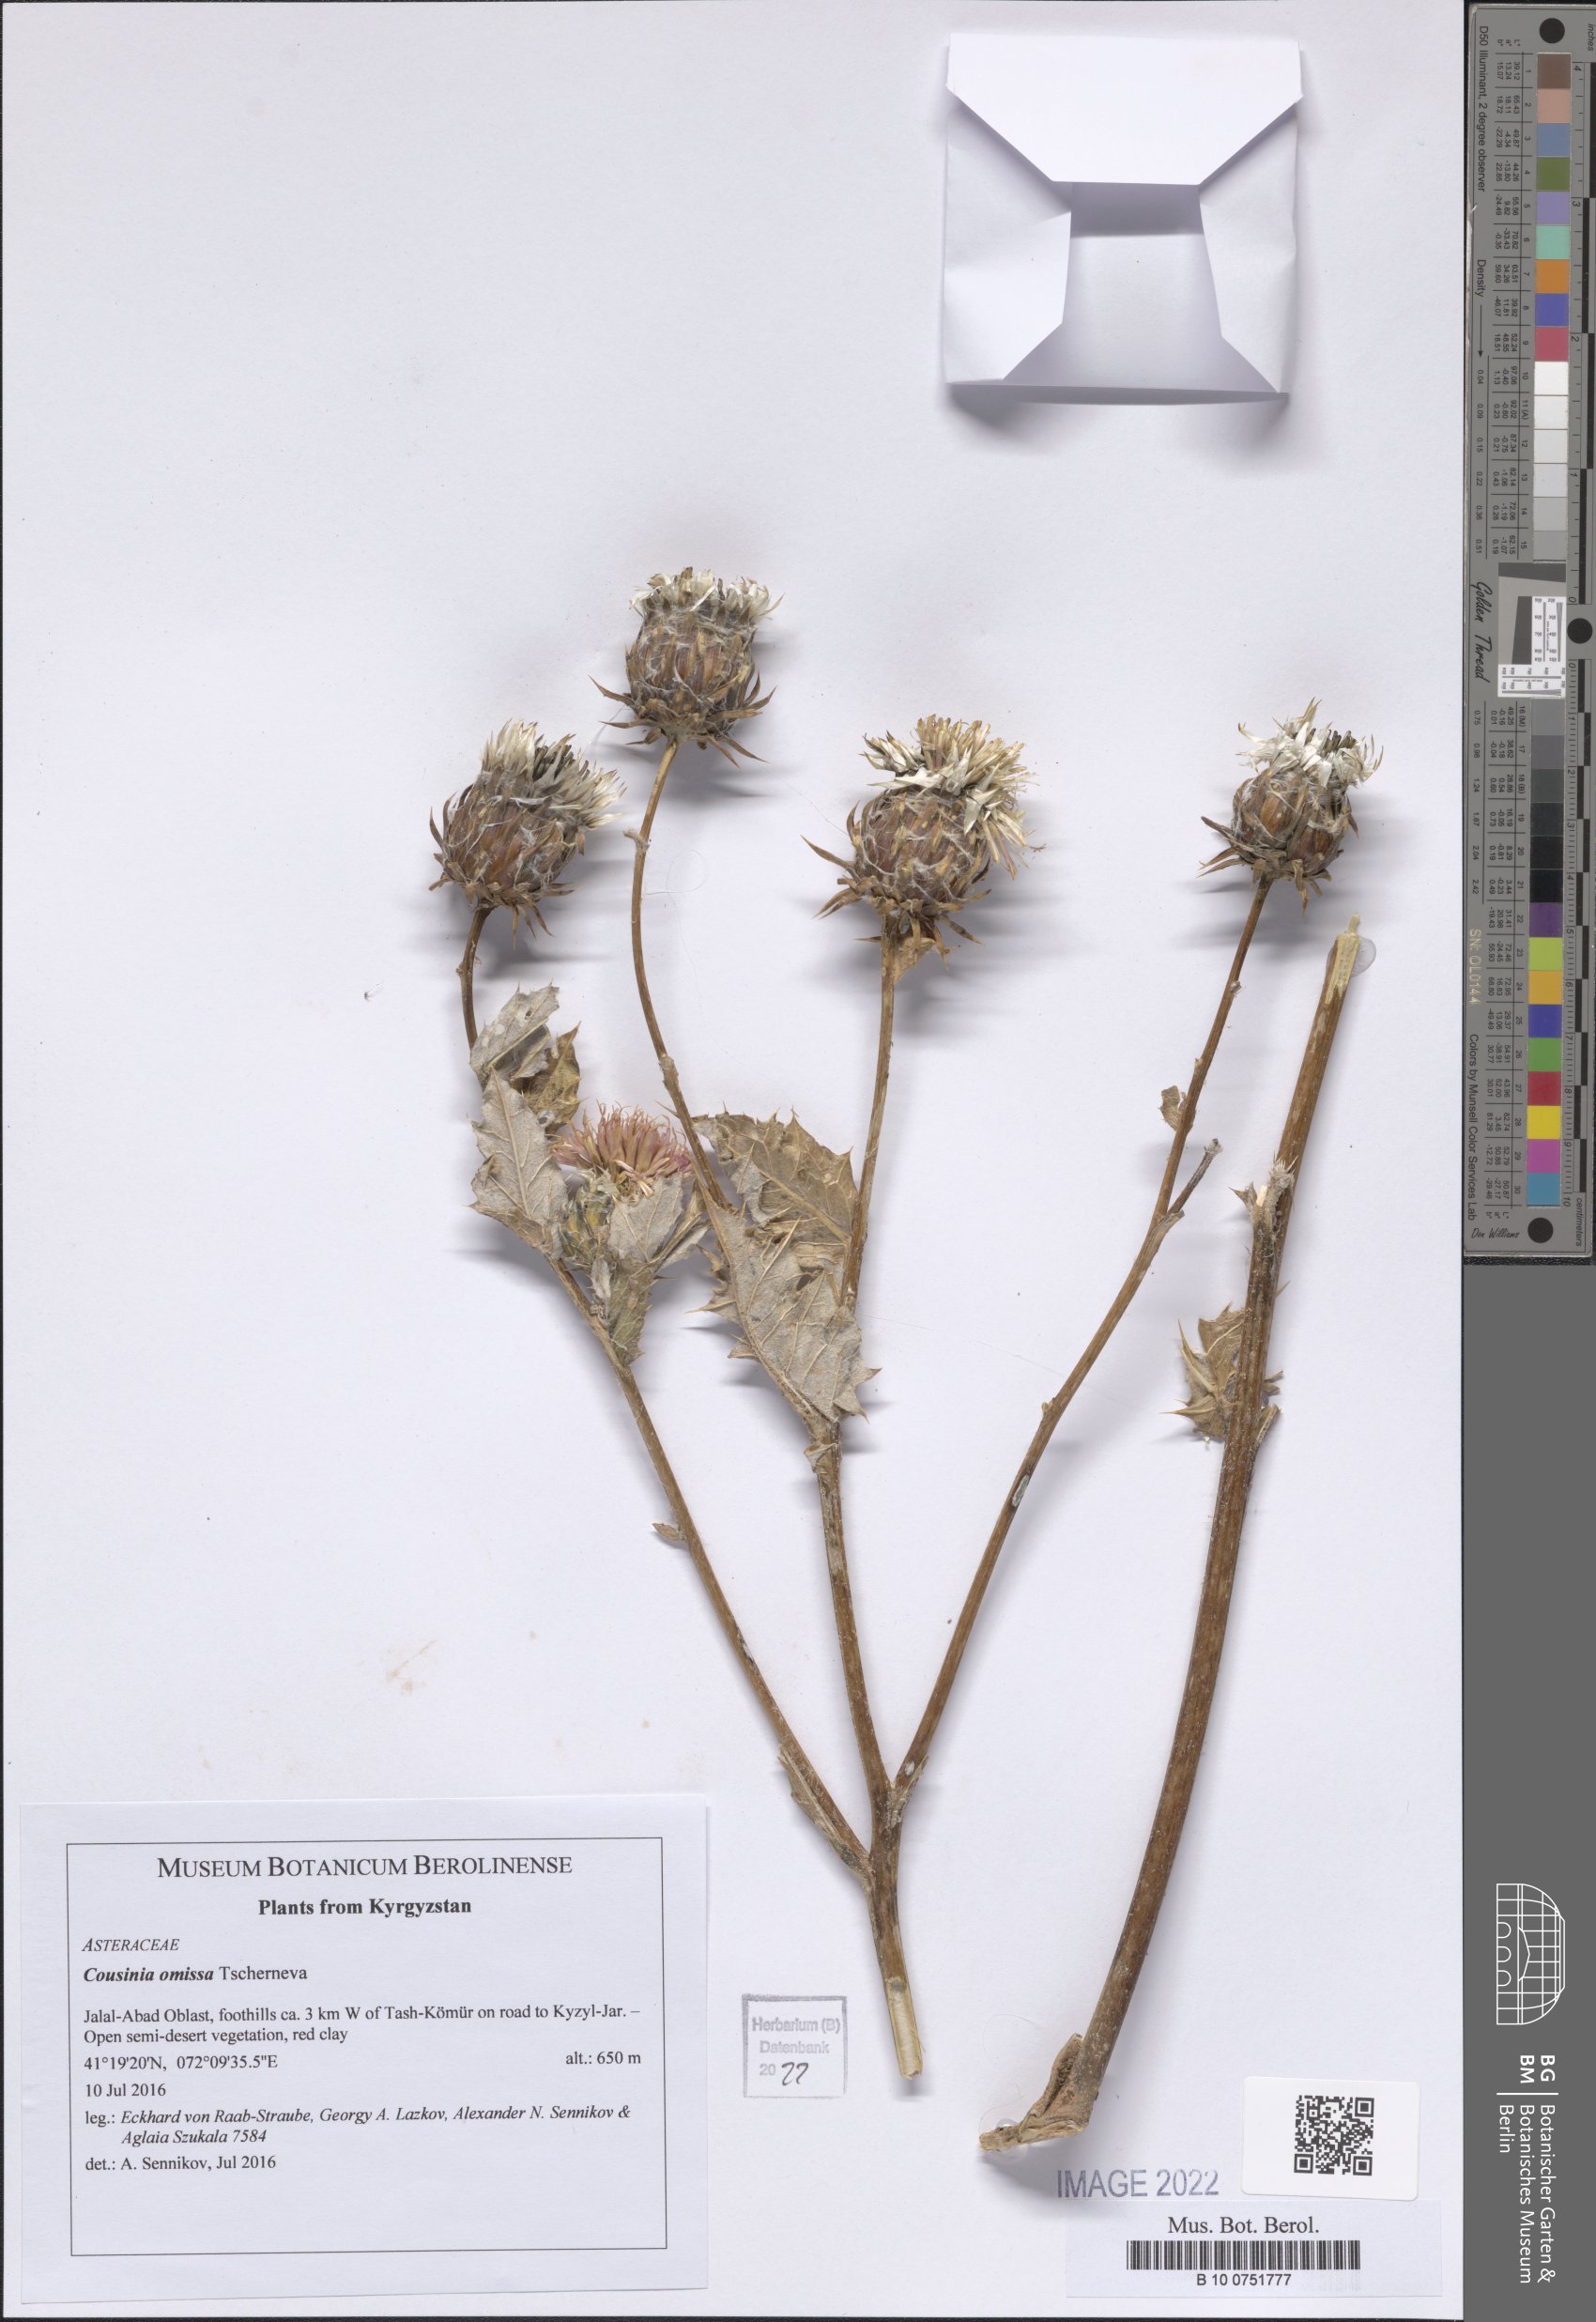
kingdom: Plantae
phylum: Tracheophyta
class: Magnoliopsida
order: Asterales
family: Asteraceae
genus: Cousinia
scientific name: Cousinia omissa
